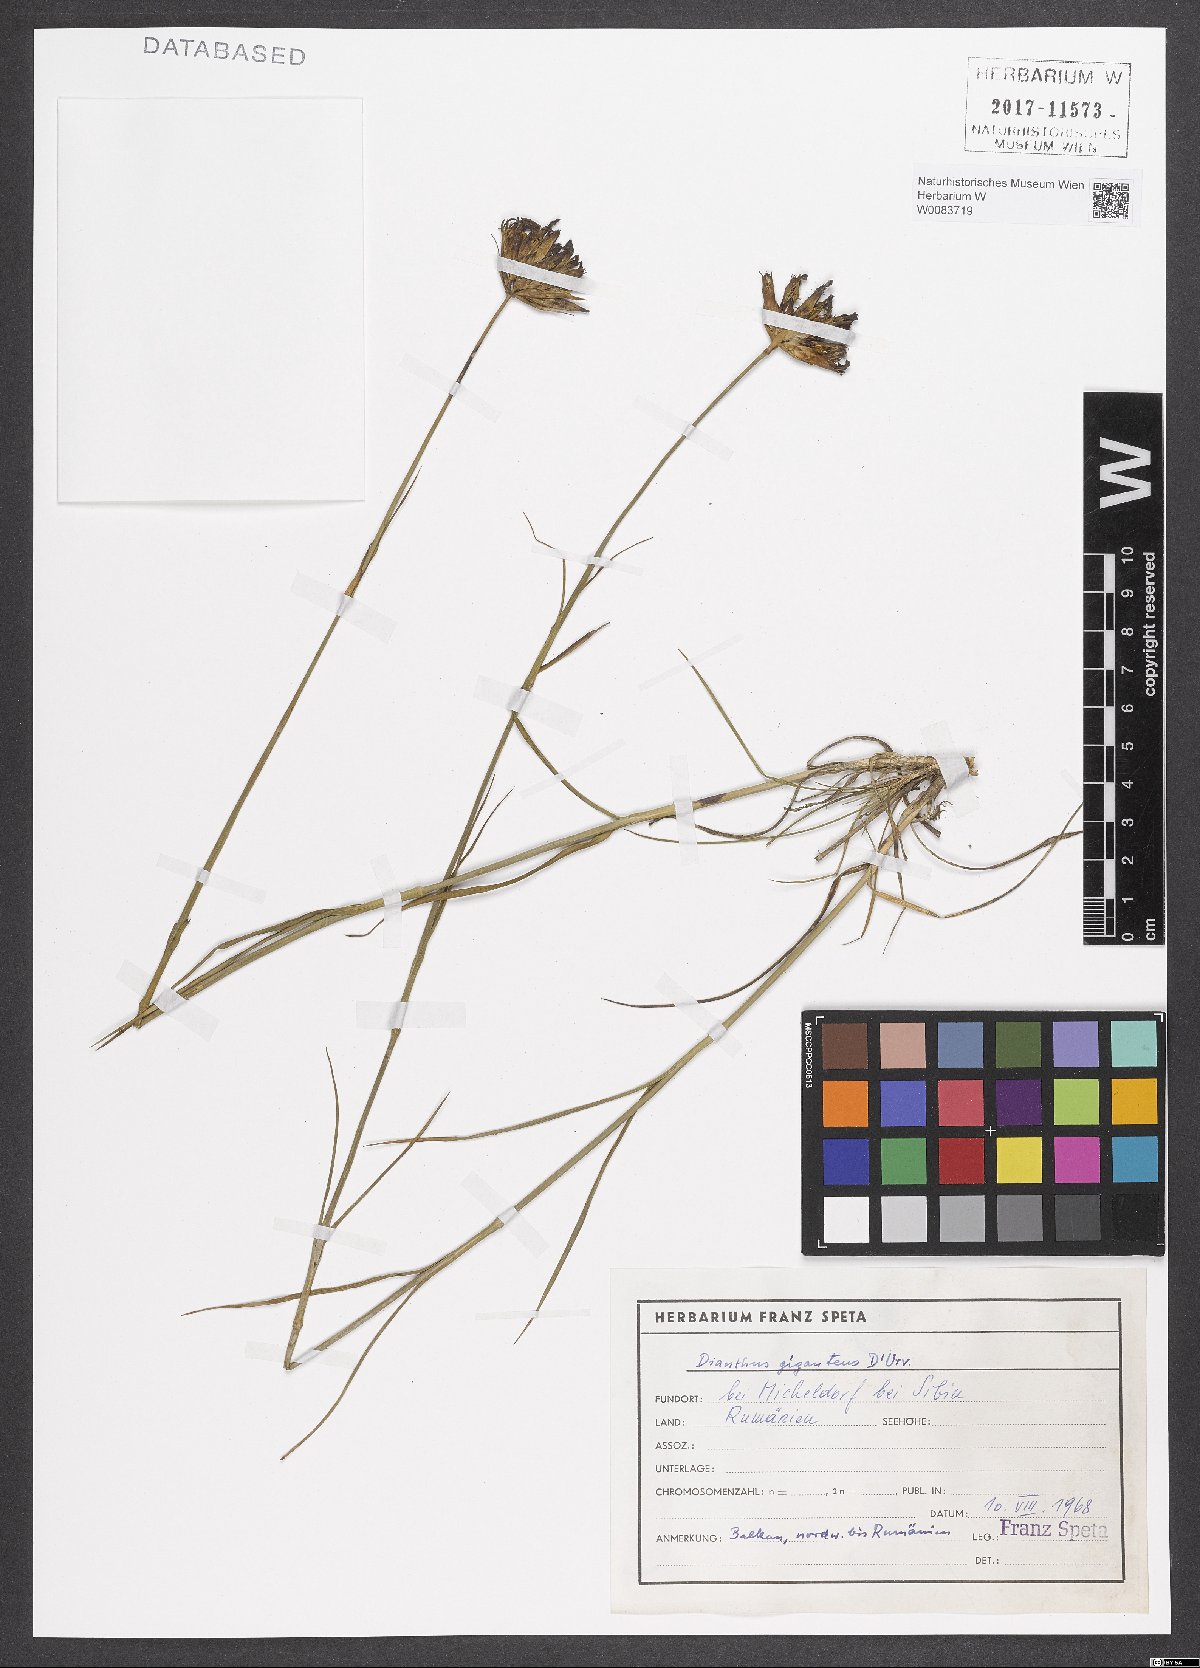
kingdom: Plantae
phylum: Tracheophyta
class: Magnoliopsida
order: Caryophyllales
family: Caryophyllaceae
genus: Dianthus
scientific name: Dianthus giganteus
